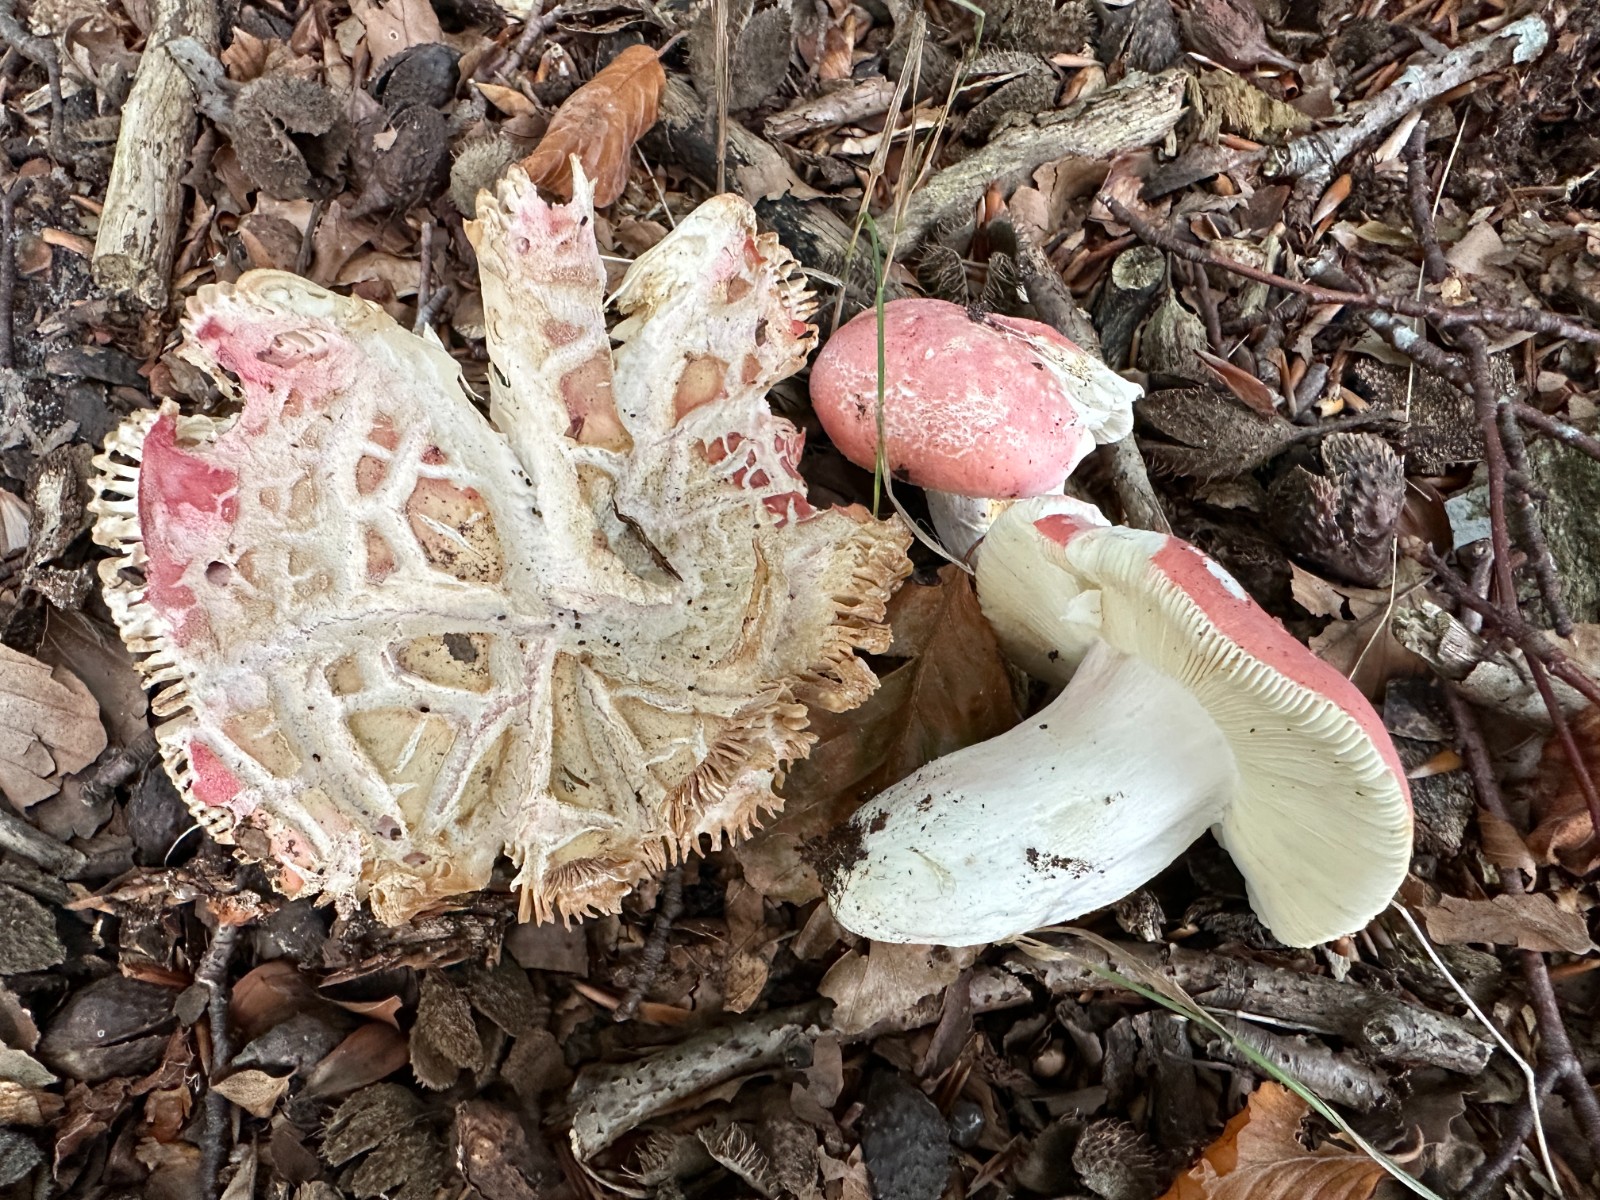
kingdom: Fungi
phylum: Basidiomycota
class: Agaricomycetes
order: Russulales
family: Russulaceae
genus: Russula
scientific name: Russula rosea
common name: fastkødet skørhat
